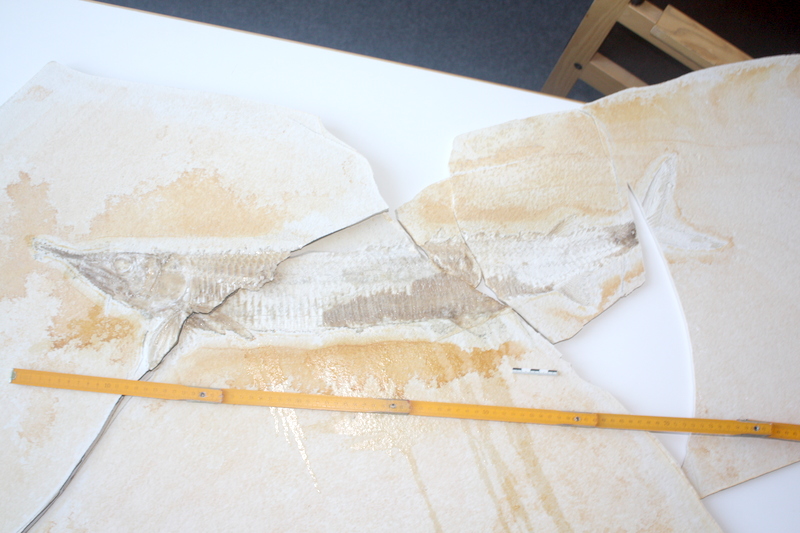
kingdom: Animalia
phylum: Chordata
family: Aspidorhynchidae
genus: Aspidorhynchus
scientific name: Aspidorhynchus acutirostris
